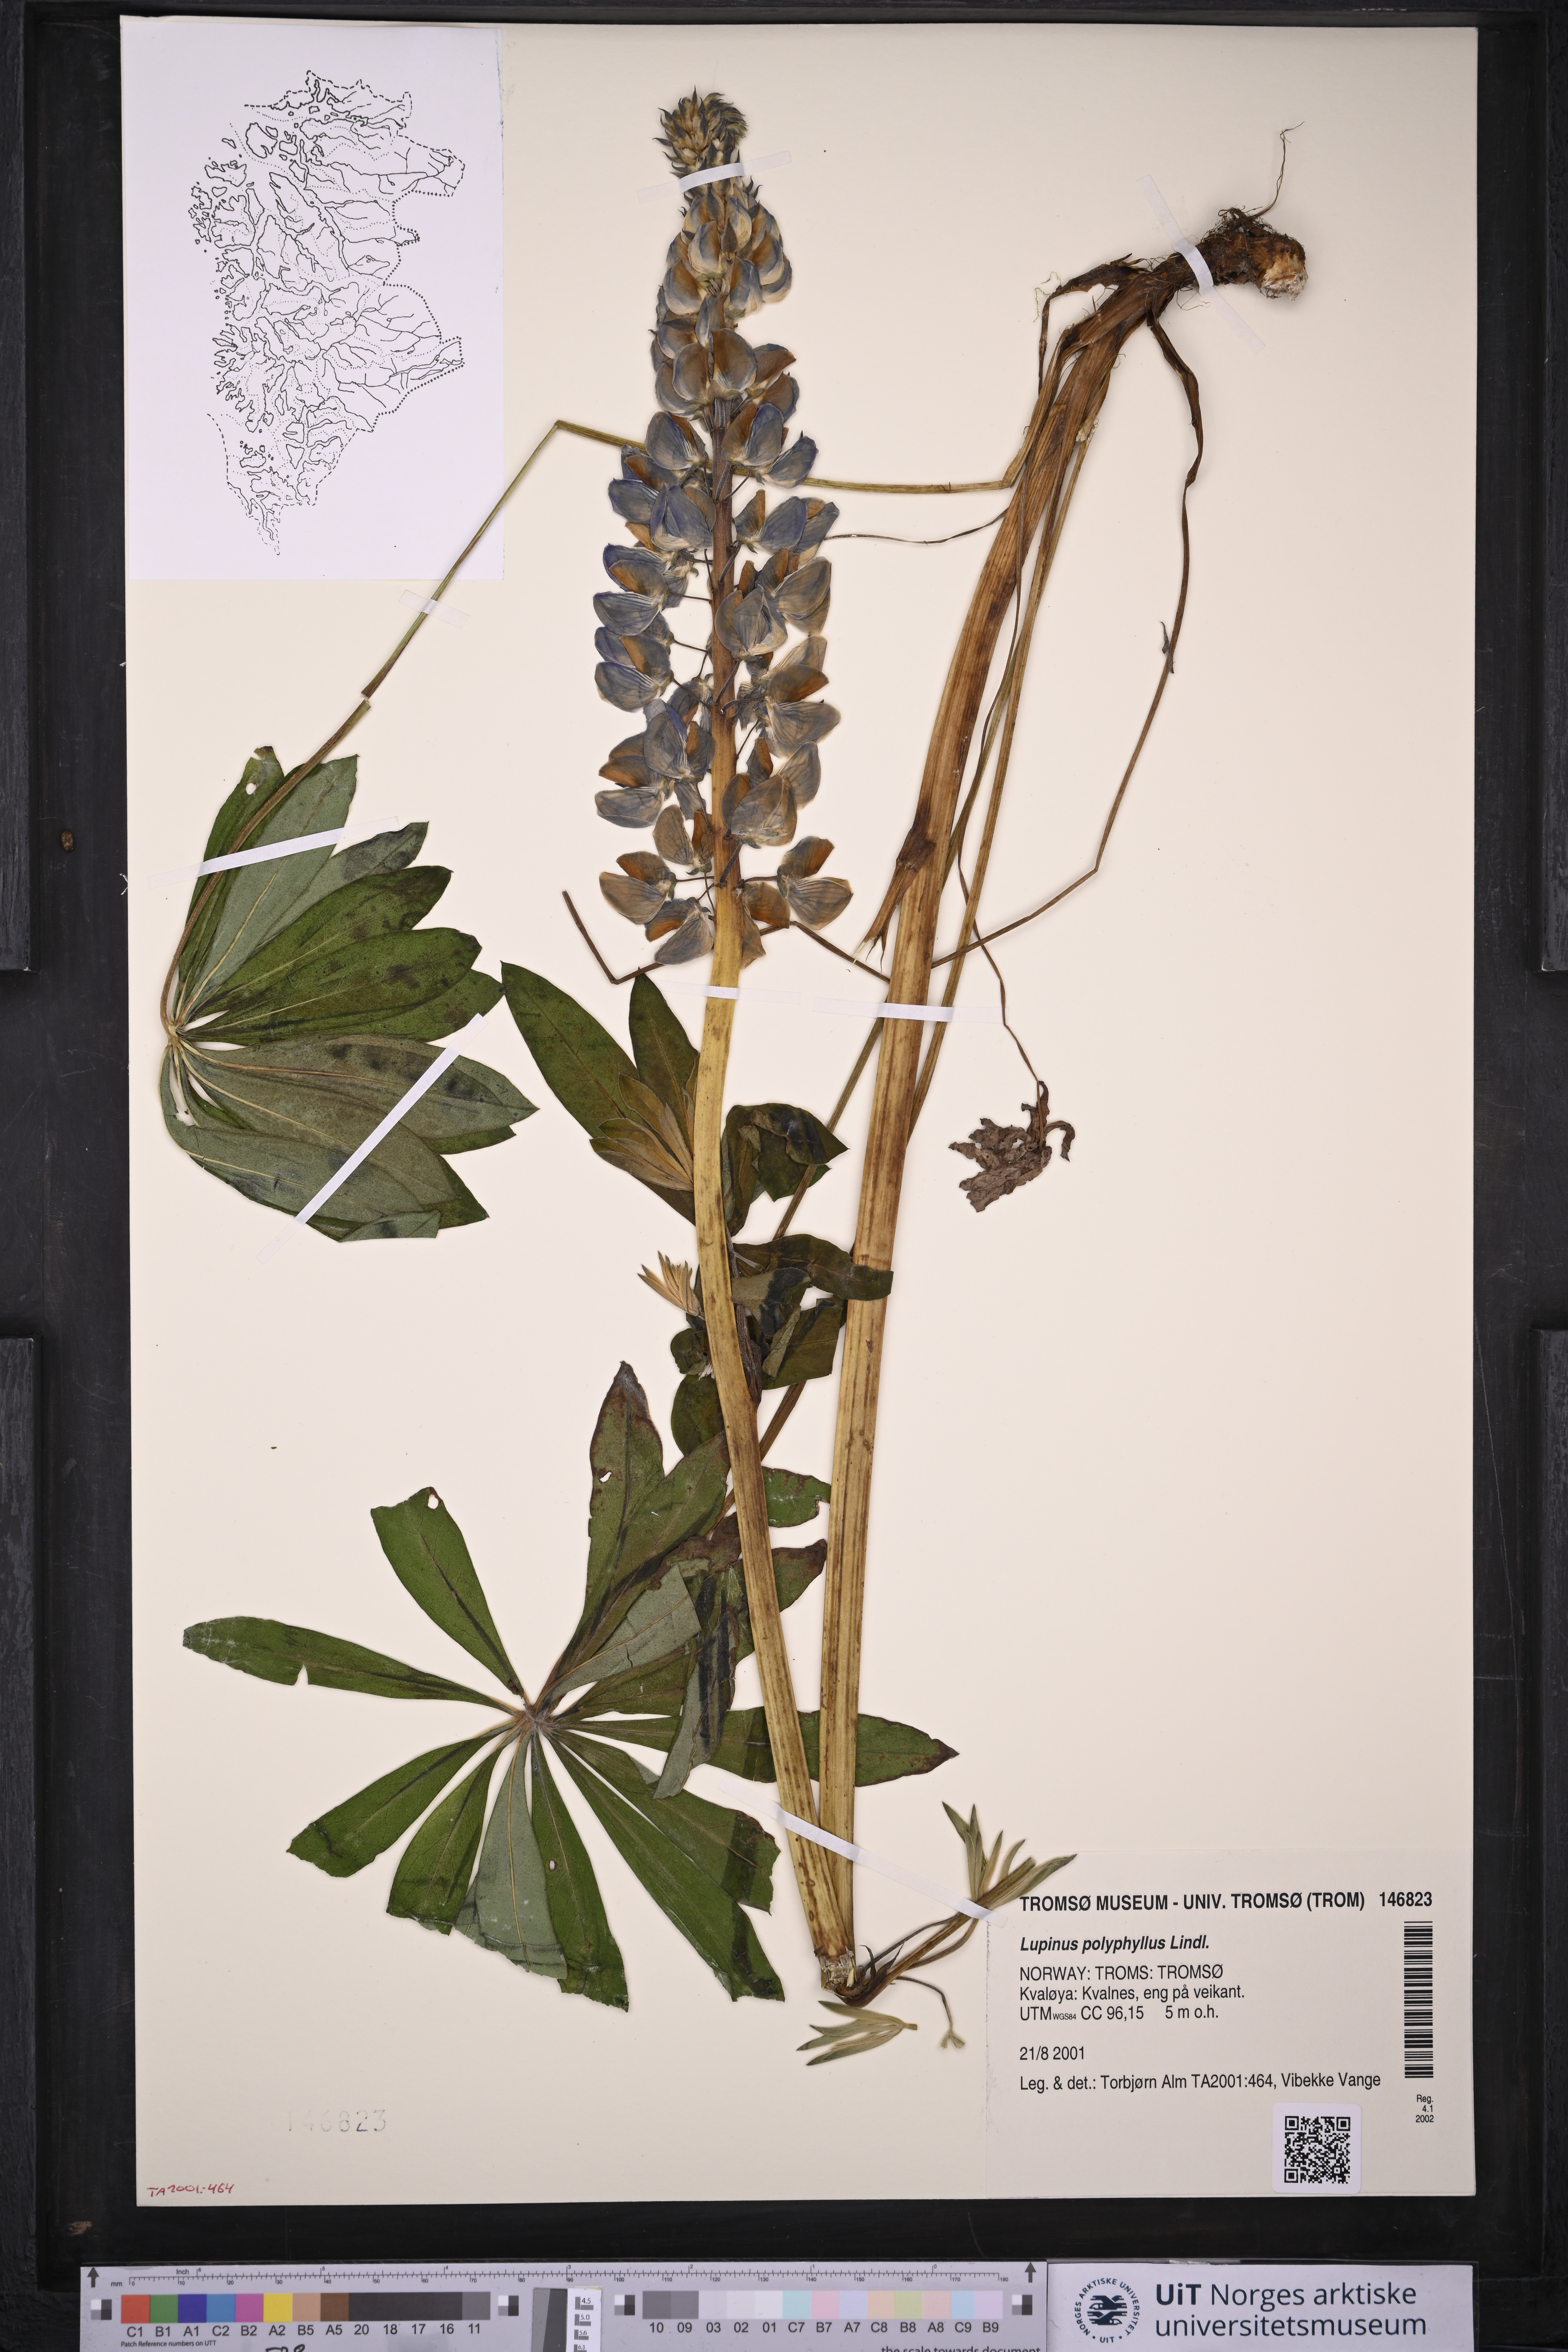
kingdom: Plantae
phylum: Tracheophyta
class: Magnoliopsida
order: Fabales
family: Fabaceae
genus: Lupinus
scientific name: Lupinus polyphyllus
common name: Garden lupin
